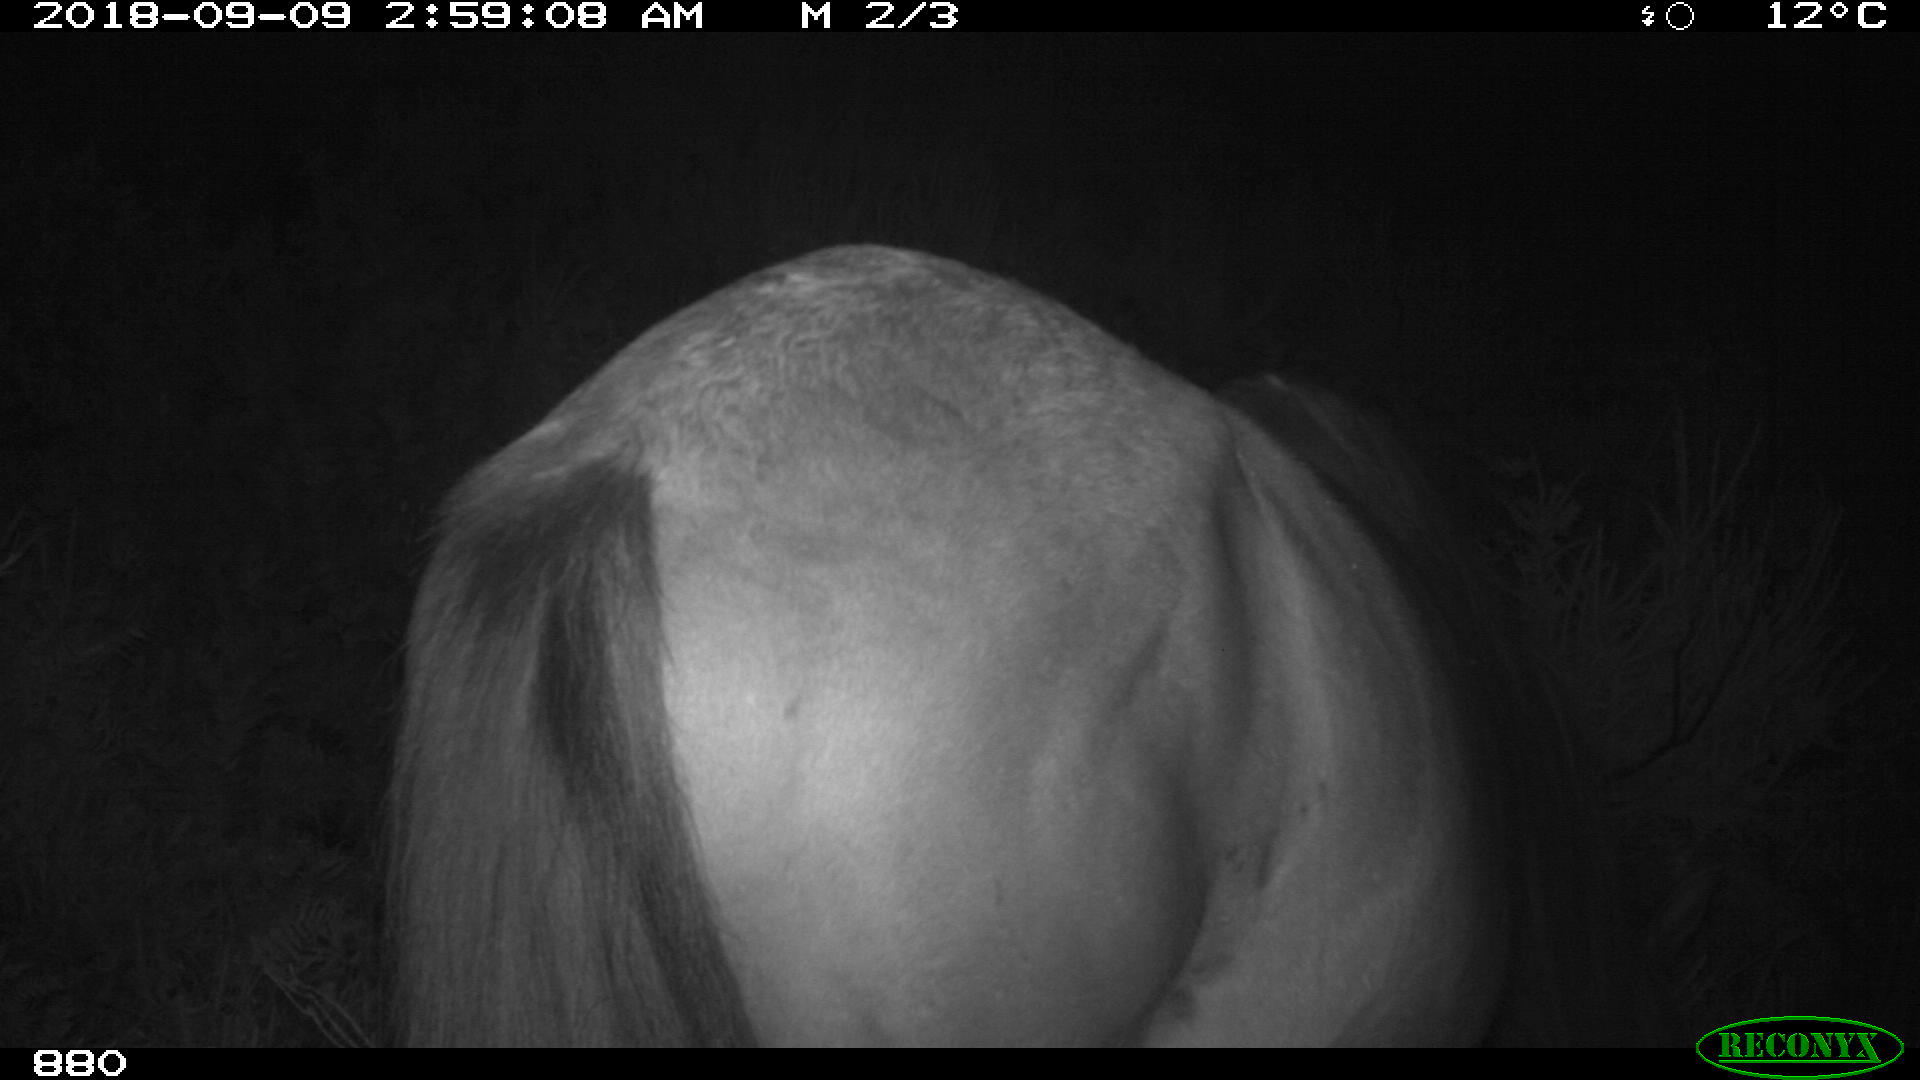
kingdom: Animalia
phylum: Chordata
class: Mammalia
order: Perissodactyla
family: Equidae
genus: Equus
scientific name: Equus caballus
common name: Horse
